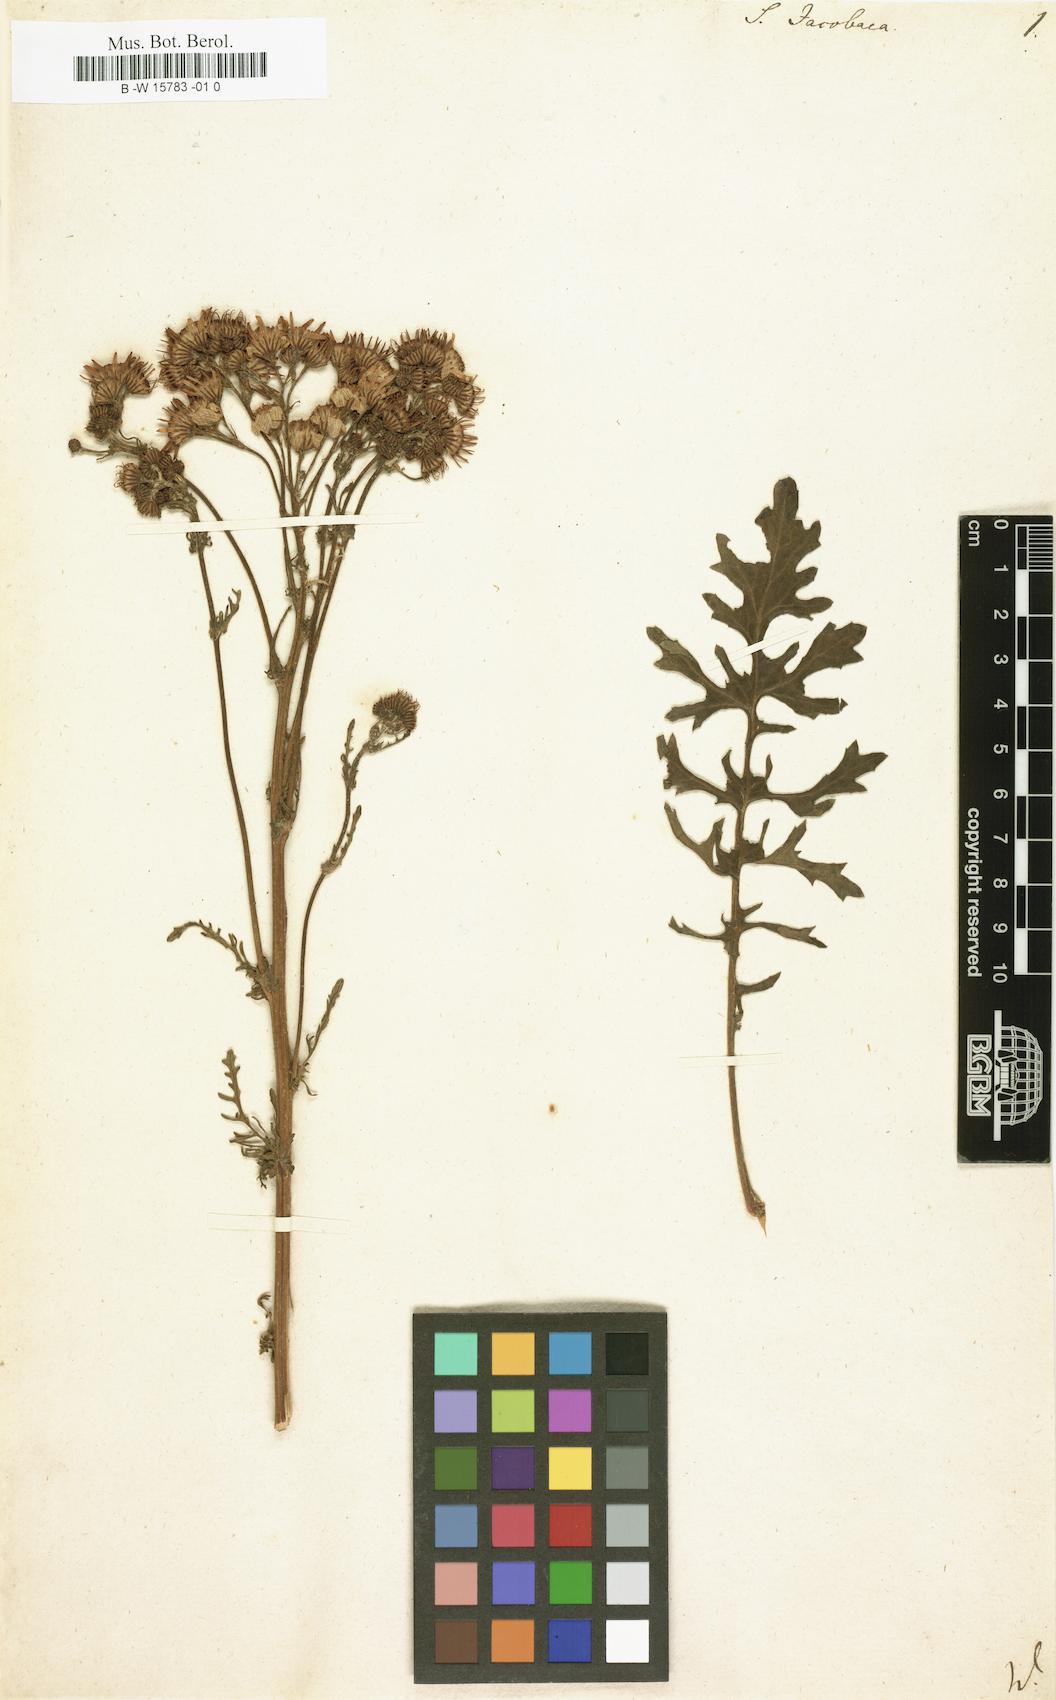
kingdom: Plantae
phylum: Tracheophyta
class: Magnoliopsida
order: Asterales
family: Asteraceae
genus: Senecio
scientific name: Senecio jacobaea
